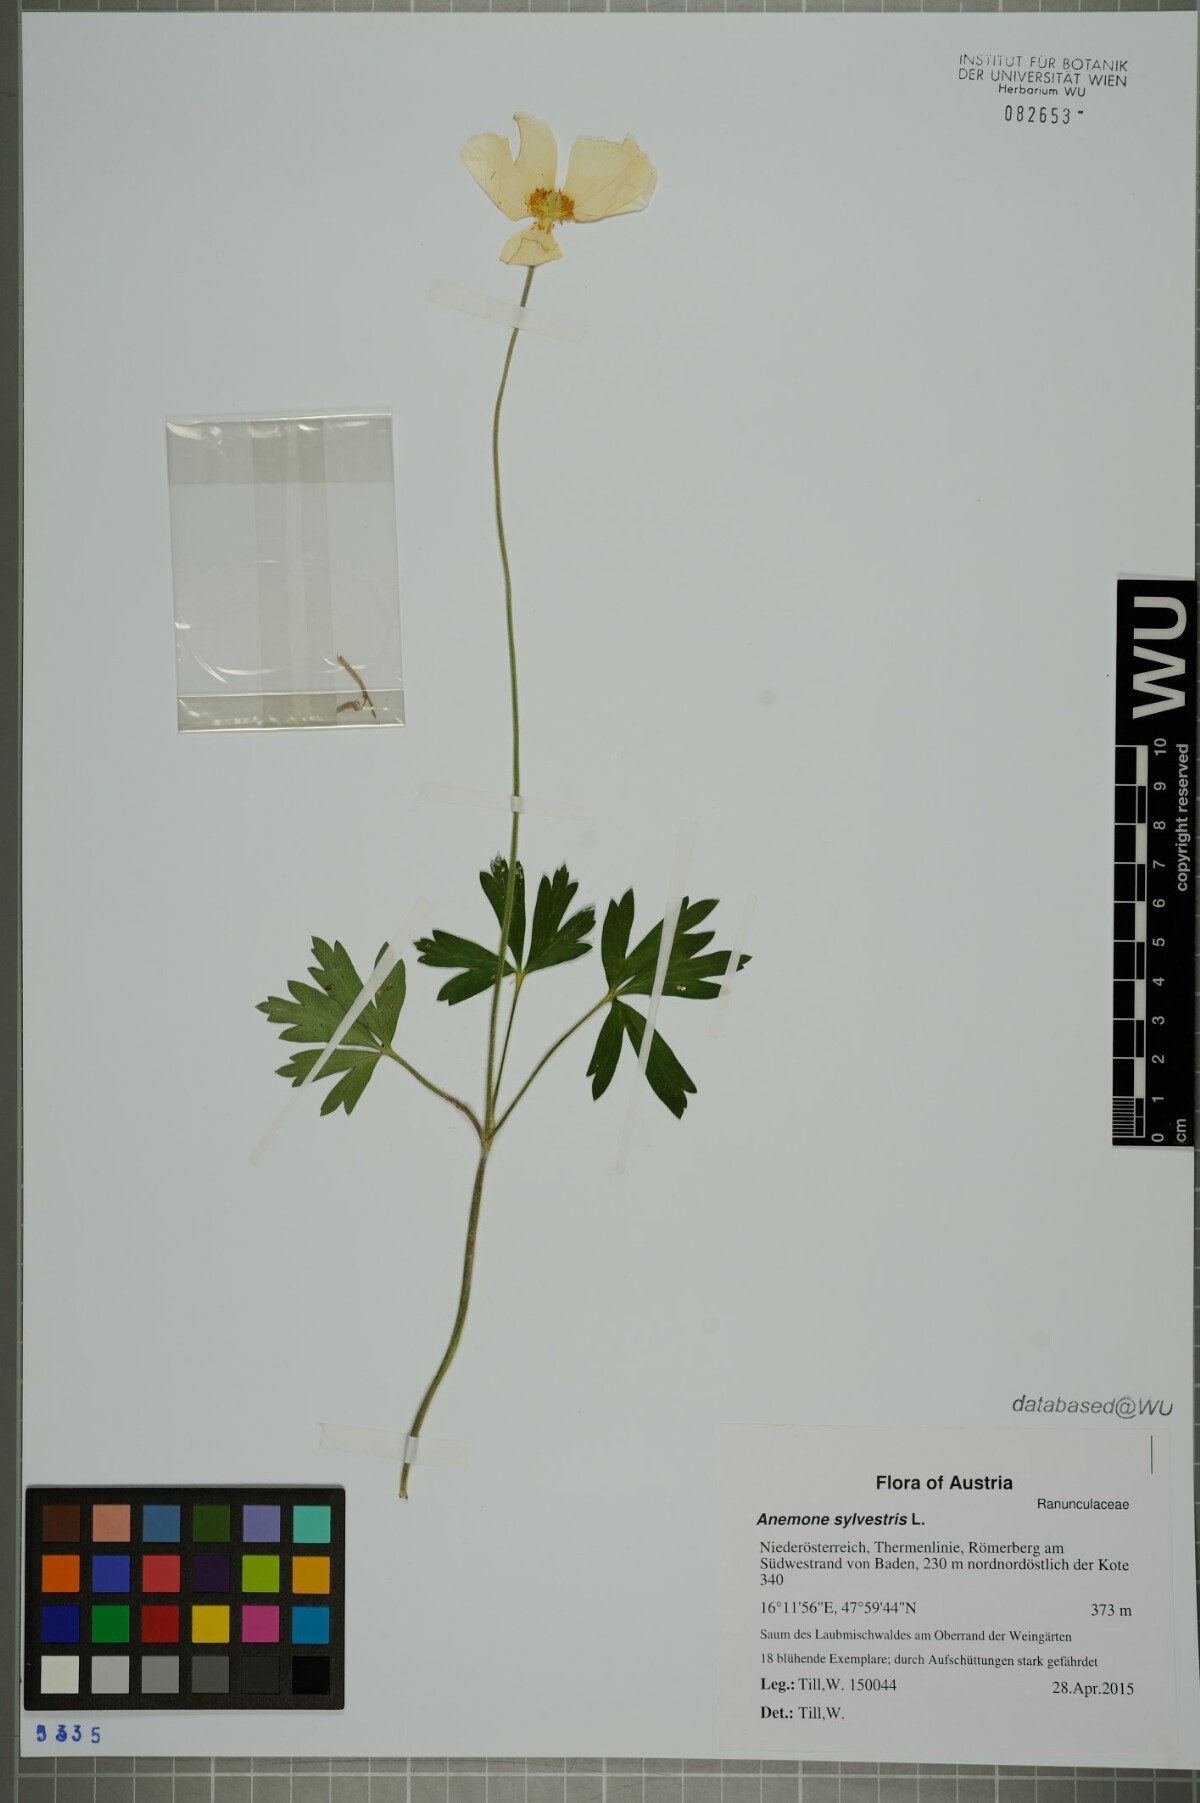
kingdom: Plantae
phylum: Tracheophyta
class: Magnoliopsida
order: Ranunculales
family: Ranunculaceae
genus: Anemone
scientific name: Anemone sylvestris
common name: Snowdrop anemone
